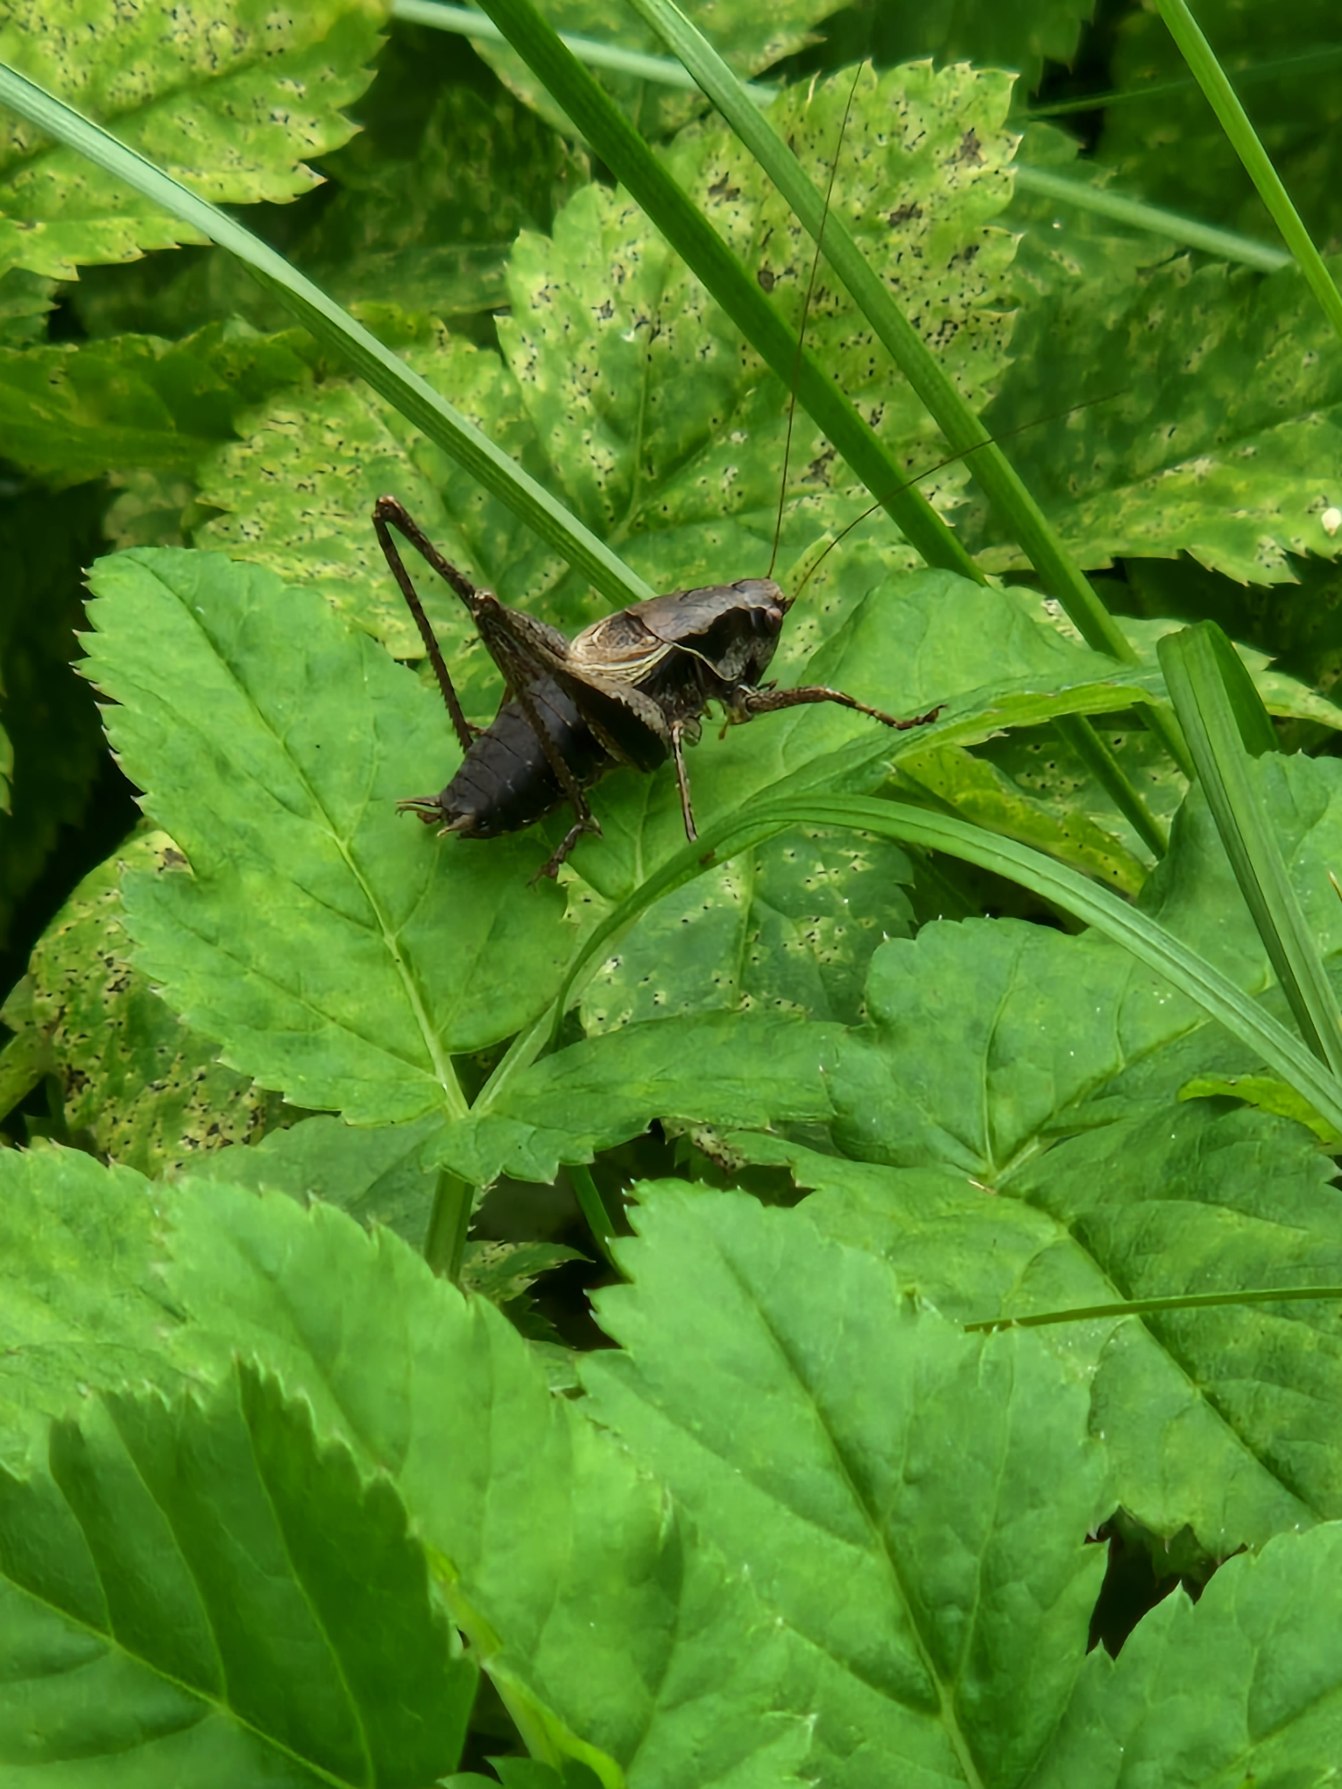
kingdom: Animalia
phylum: Arthropoda
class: Insecta
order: Orthoptera
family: Tettigoniidae
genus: Pholidoptera
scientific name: Pholidoptera griseoaptera
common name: Buskgræshoppe
